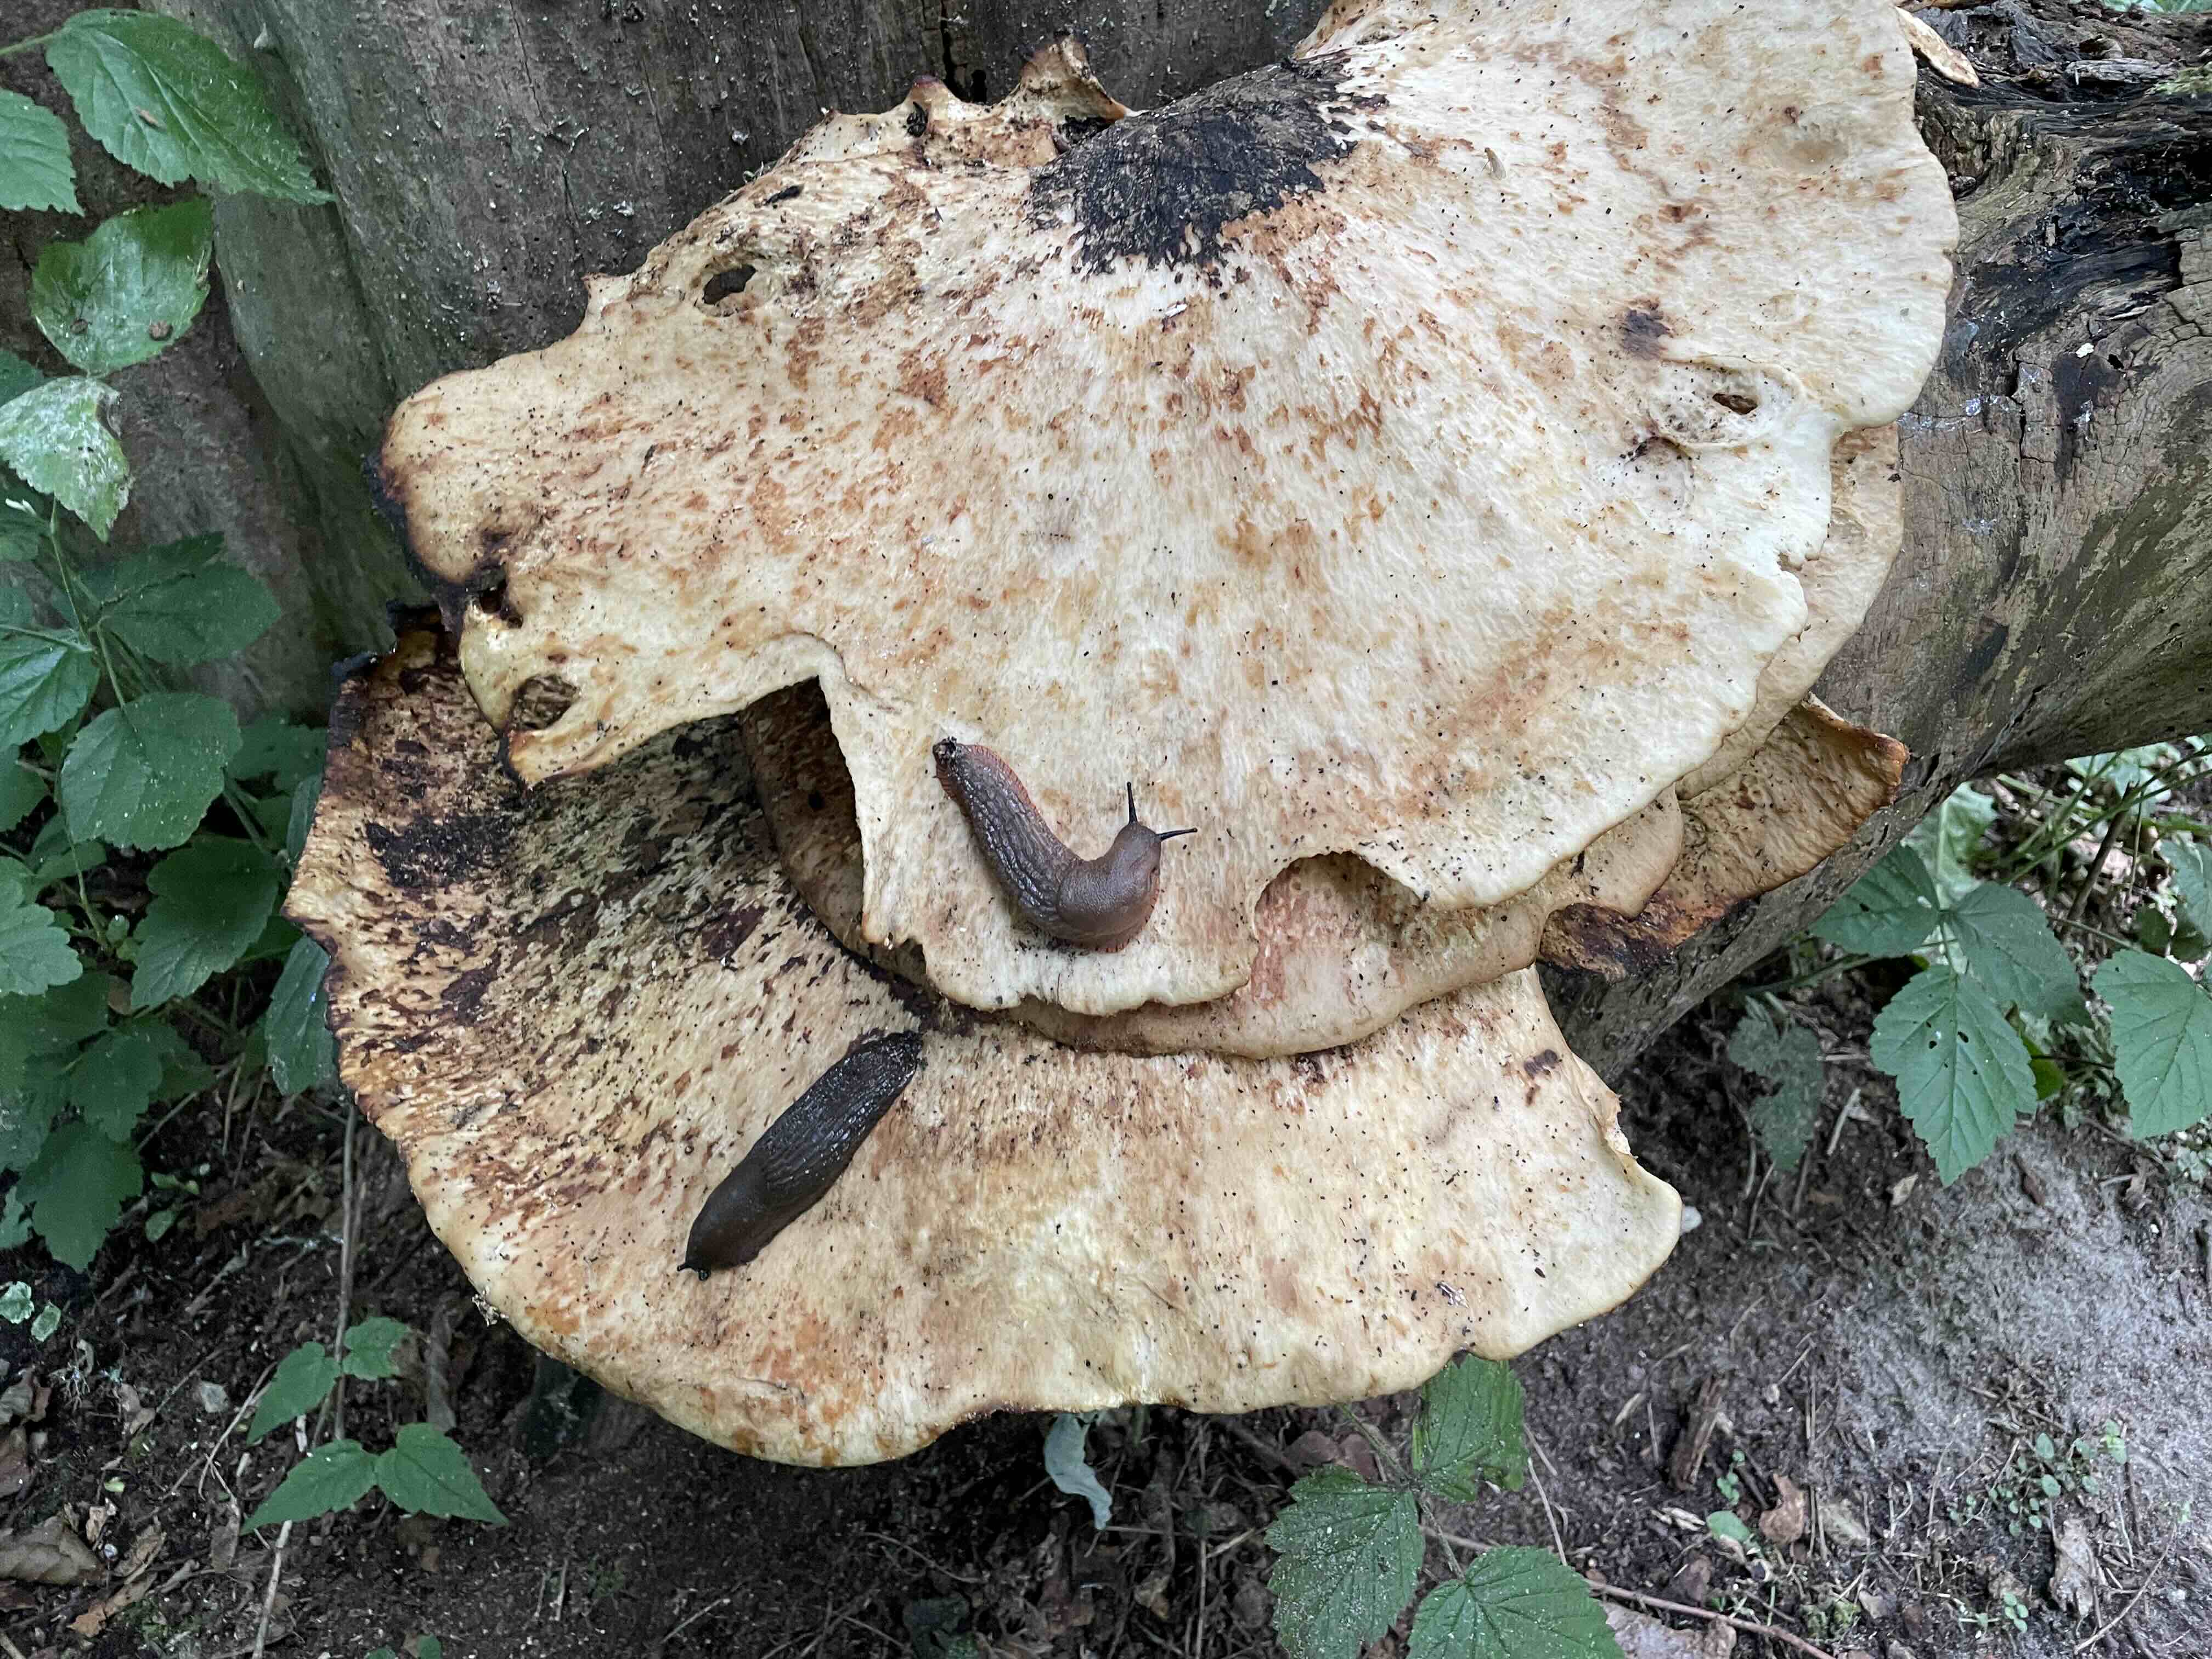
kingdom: Fungi
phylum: Basidiomycota
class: Agaricomycetes
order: Polyporales
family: Polyporaceae
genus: Cerioporus
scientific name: Cerioporus squamosus
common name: skællet stilkporesvamp
